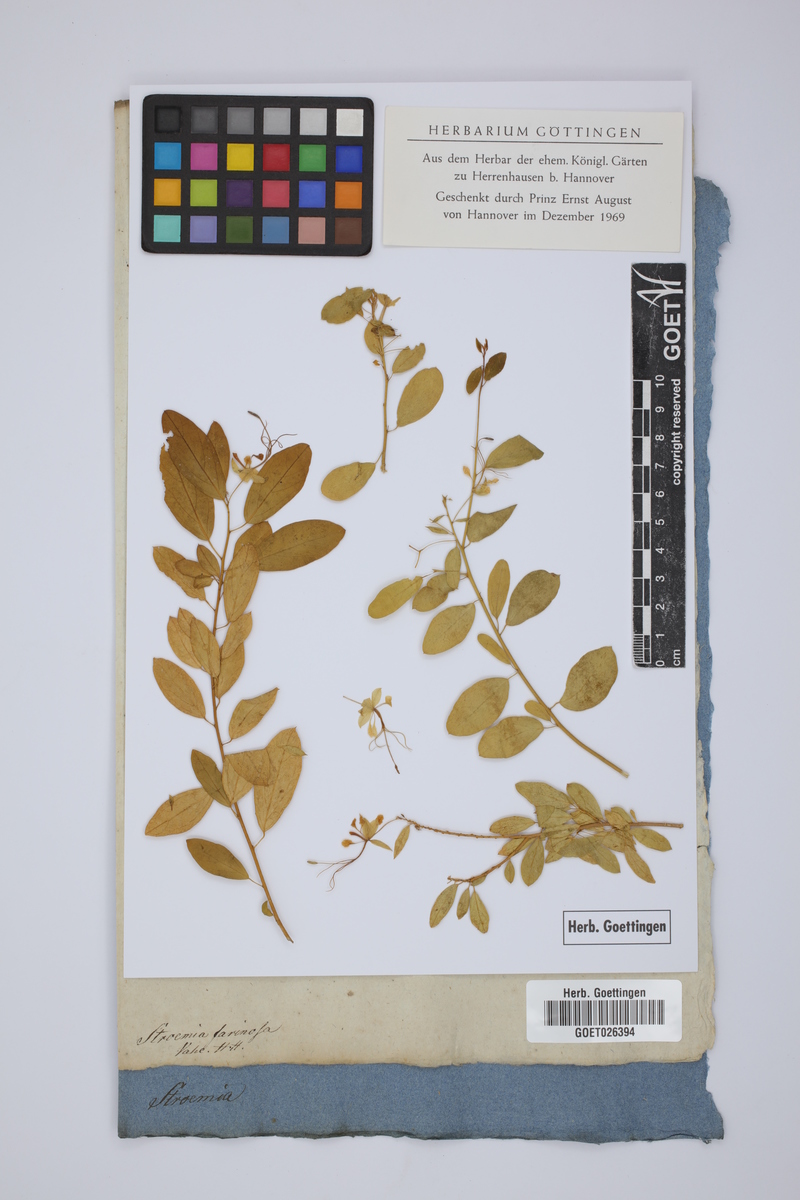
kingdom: Plantae
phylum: Tracheophyta
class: Magnoliopsida
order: Brassicales
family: Capparaceae
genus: Cadaba
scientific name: Cadaba farinosa
